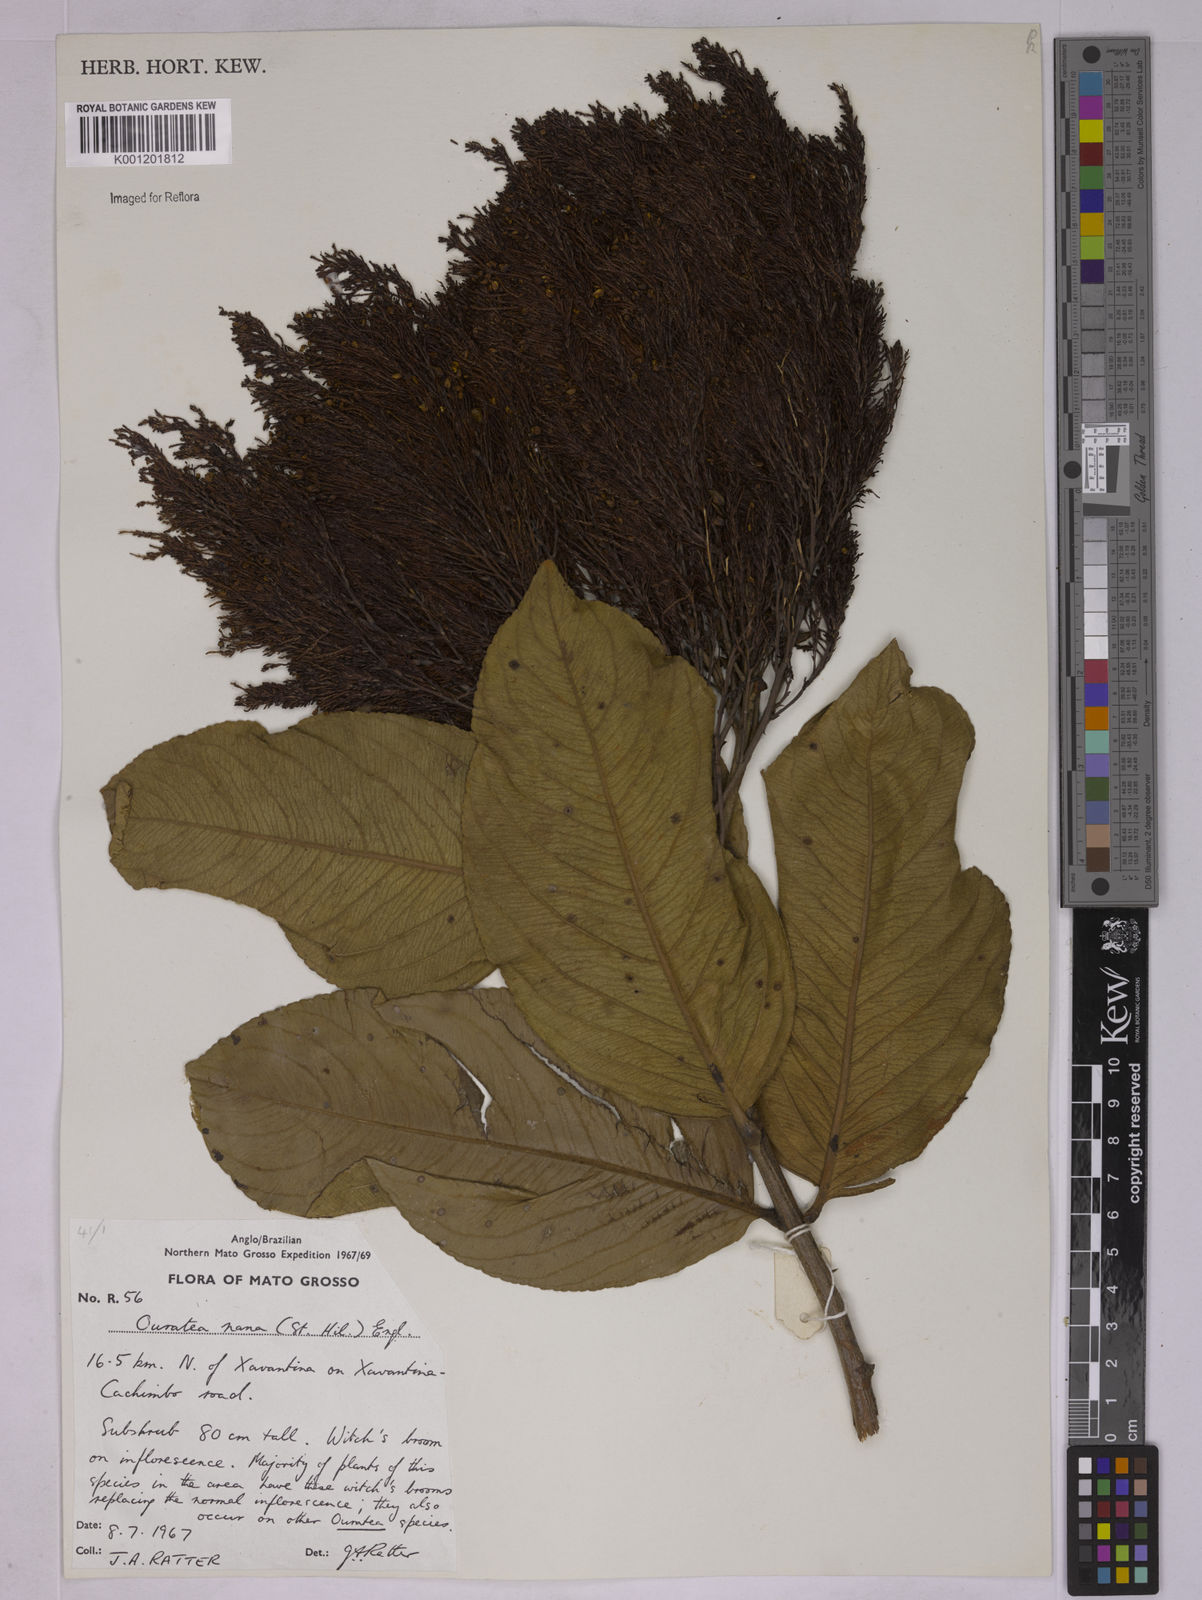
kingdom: Plantae
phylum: Tracheophyta
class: Magnoliopsida
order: Malpighiales
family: Ochnaceae
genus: Ouratea
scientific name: Ouratea nana
